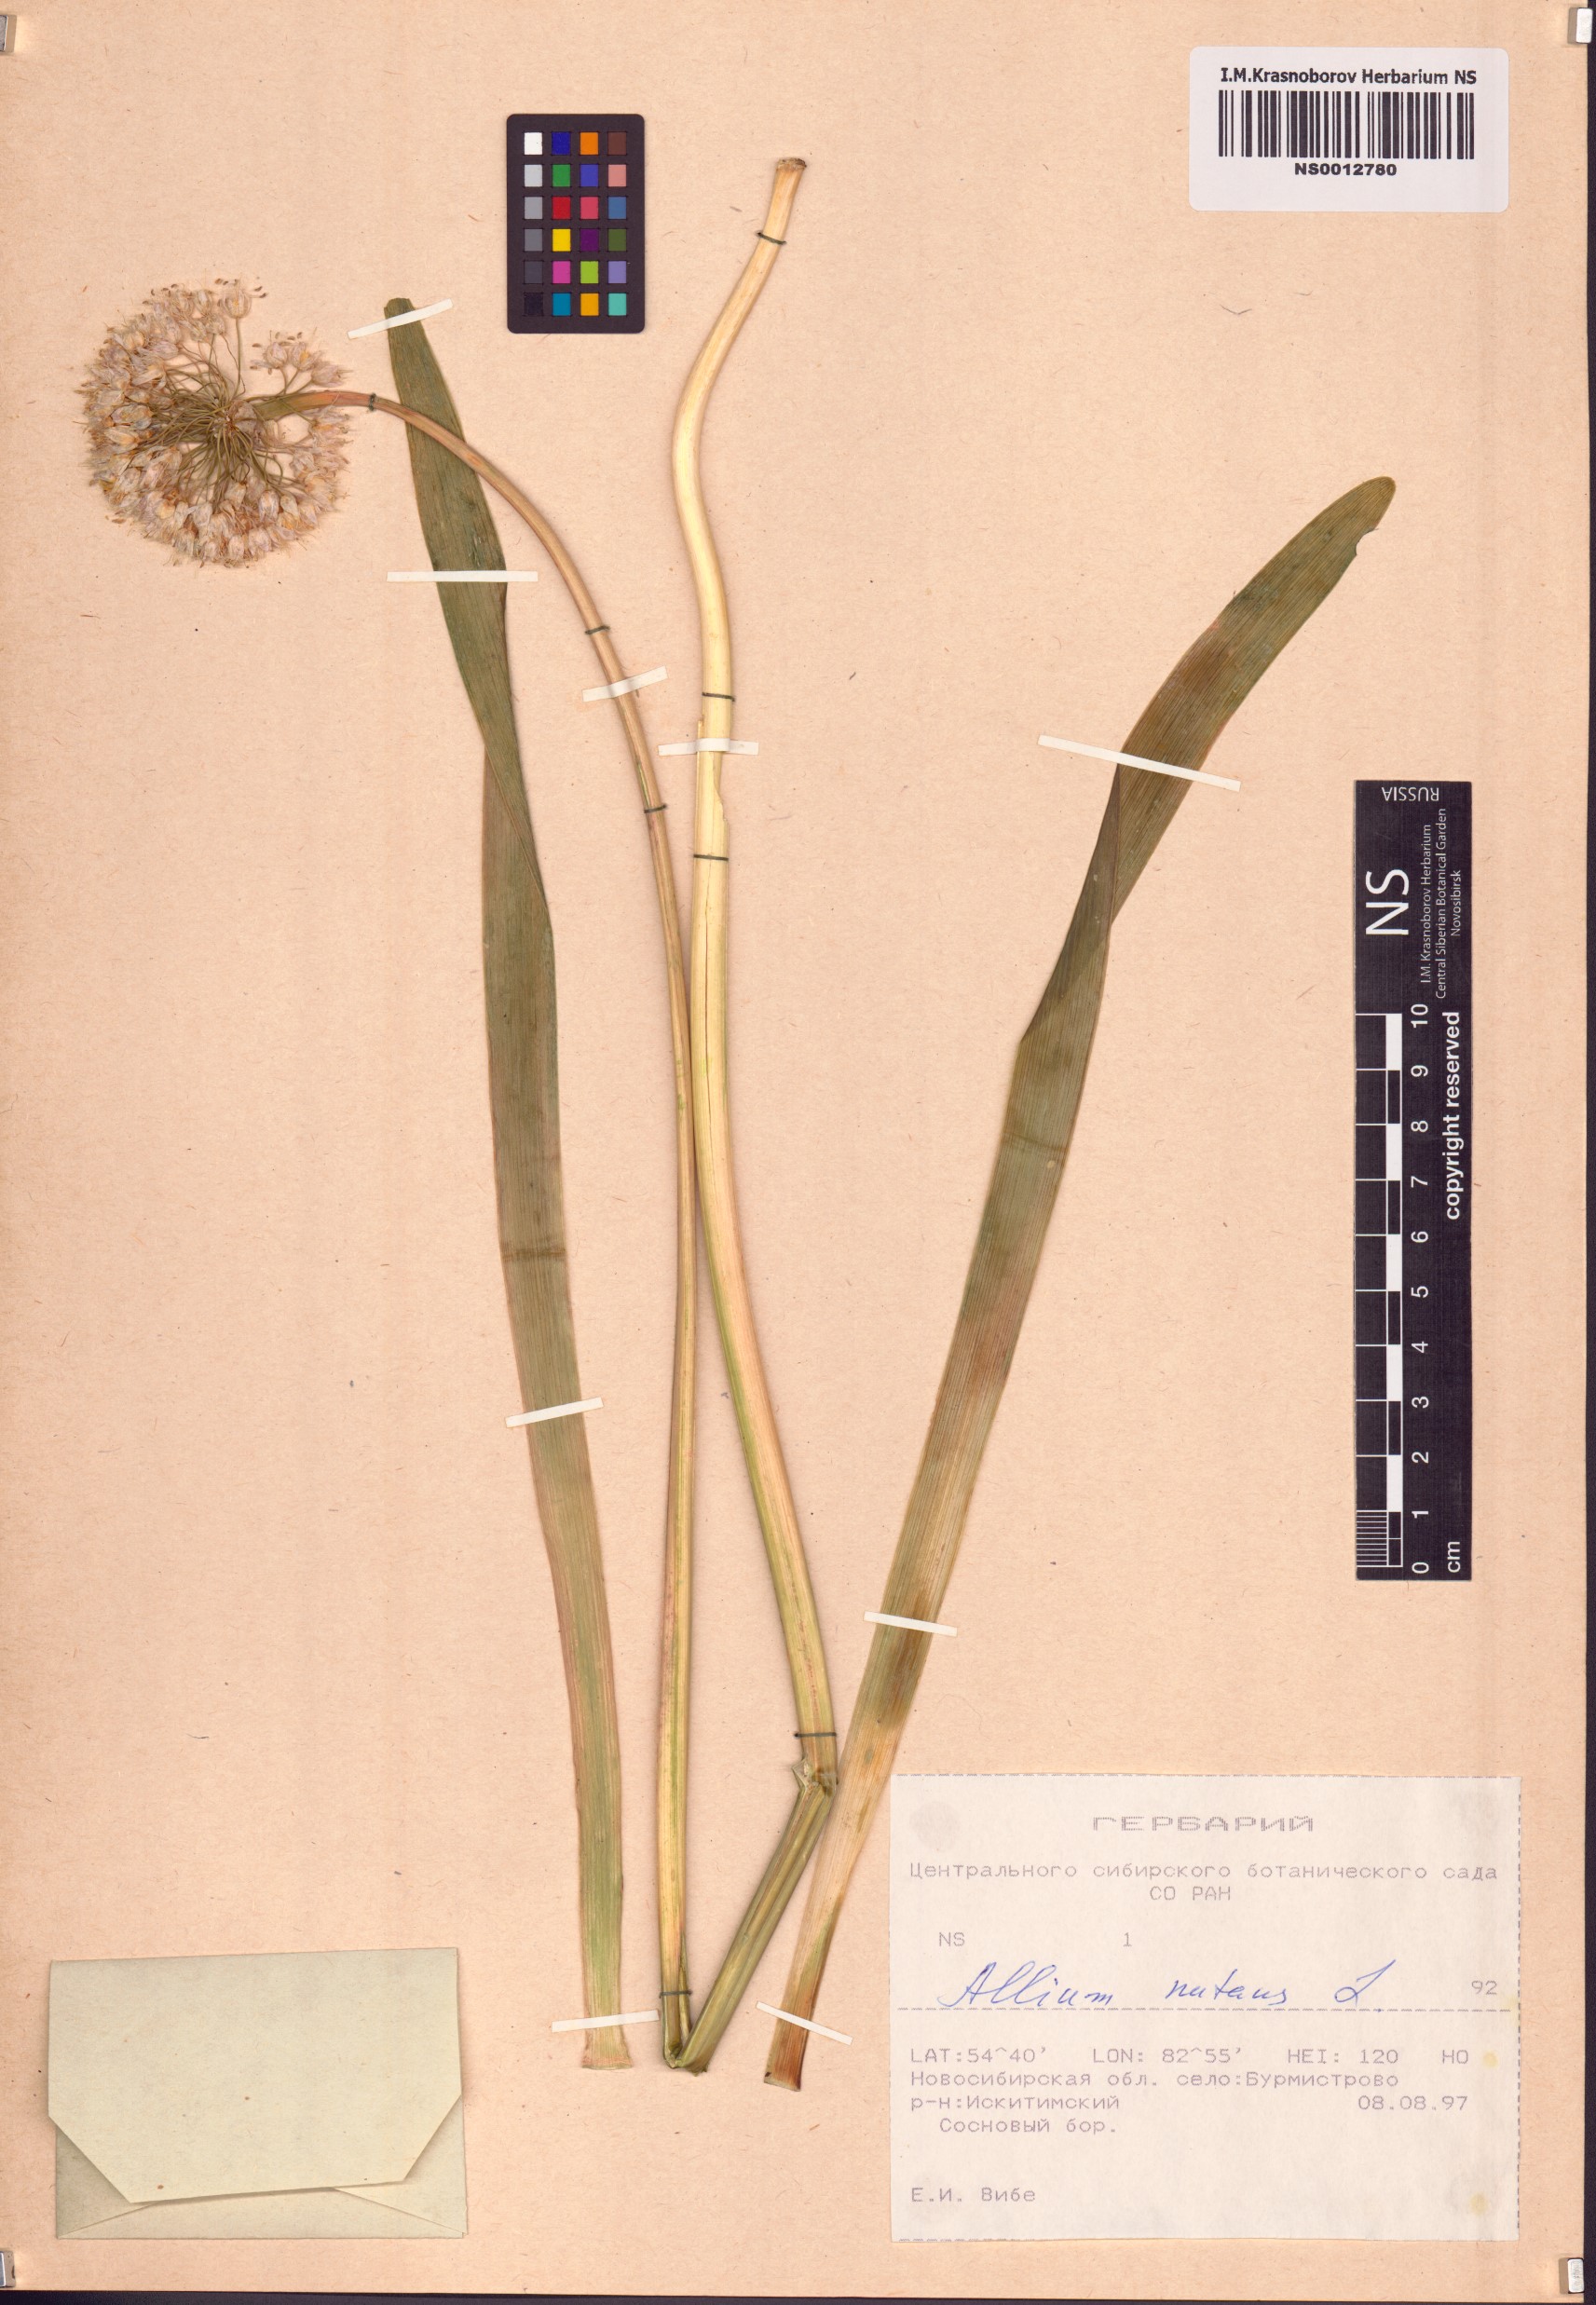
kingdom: Plantae
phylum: Tracheophyta
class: Liliopsida
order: Asparagales
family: Amaryllidaceae
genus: Allium
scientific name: Allium nutans
